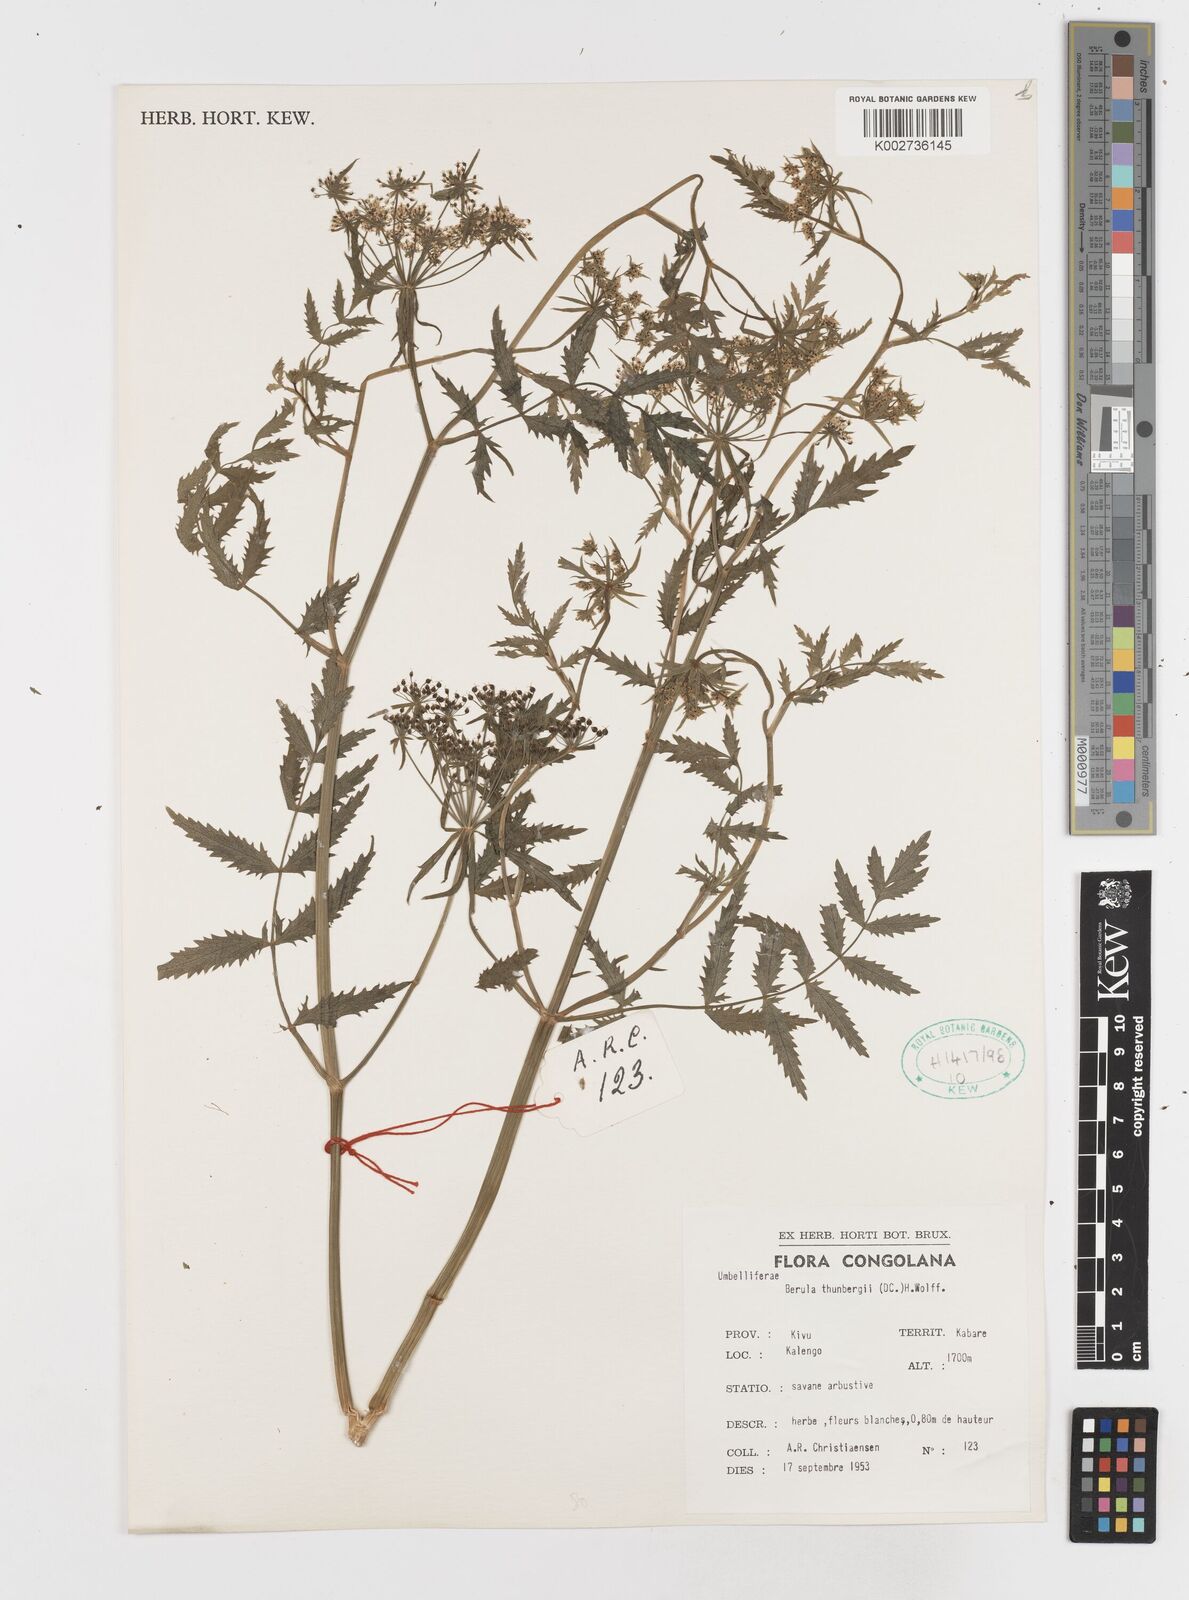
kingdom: Plantae
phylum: Tracheophyta
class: Magnoliopsida
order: Apiales
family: Apiaceae
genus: Berula
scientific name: Berula erecta
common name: Lesser water-parsnip
